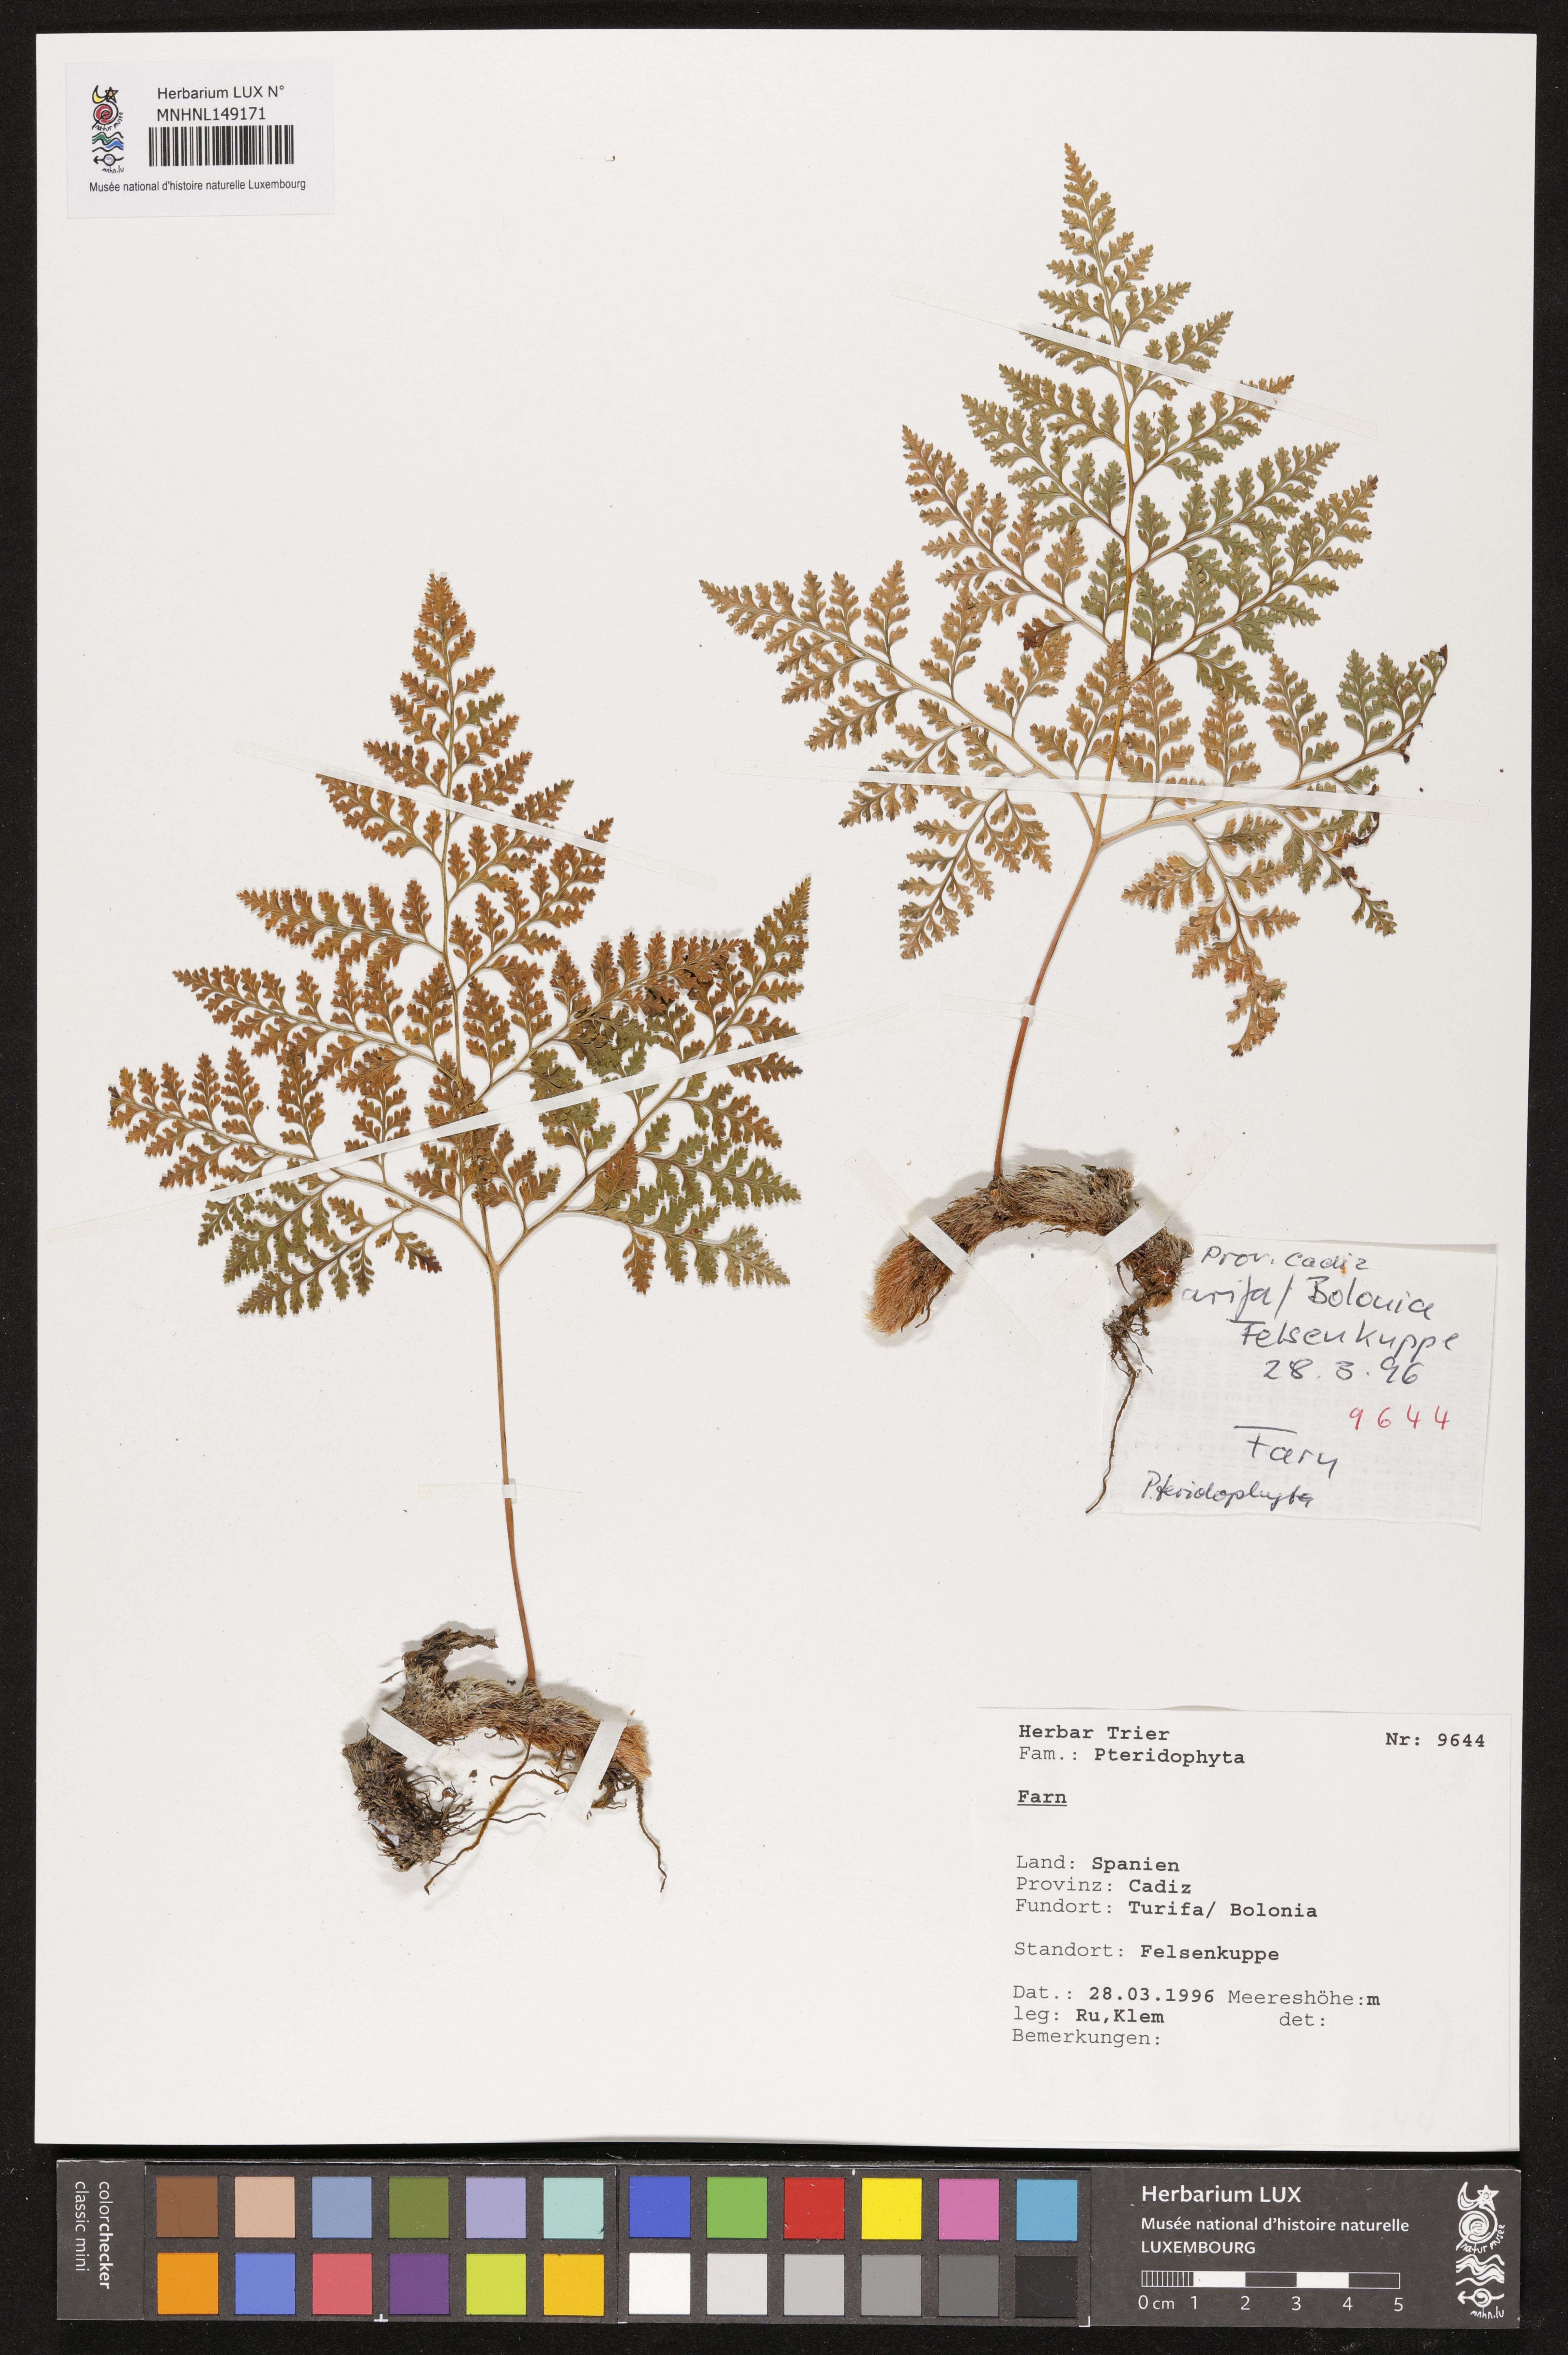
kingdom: Plantae
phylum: Tracheophyta
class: Polypodiopsida
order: Polypodiales
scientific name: Polypodiales
